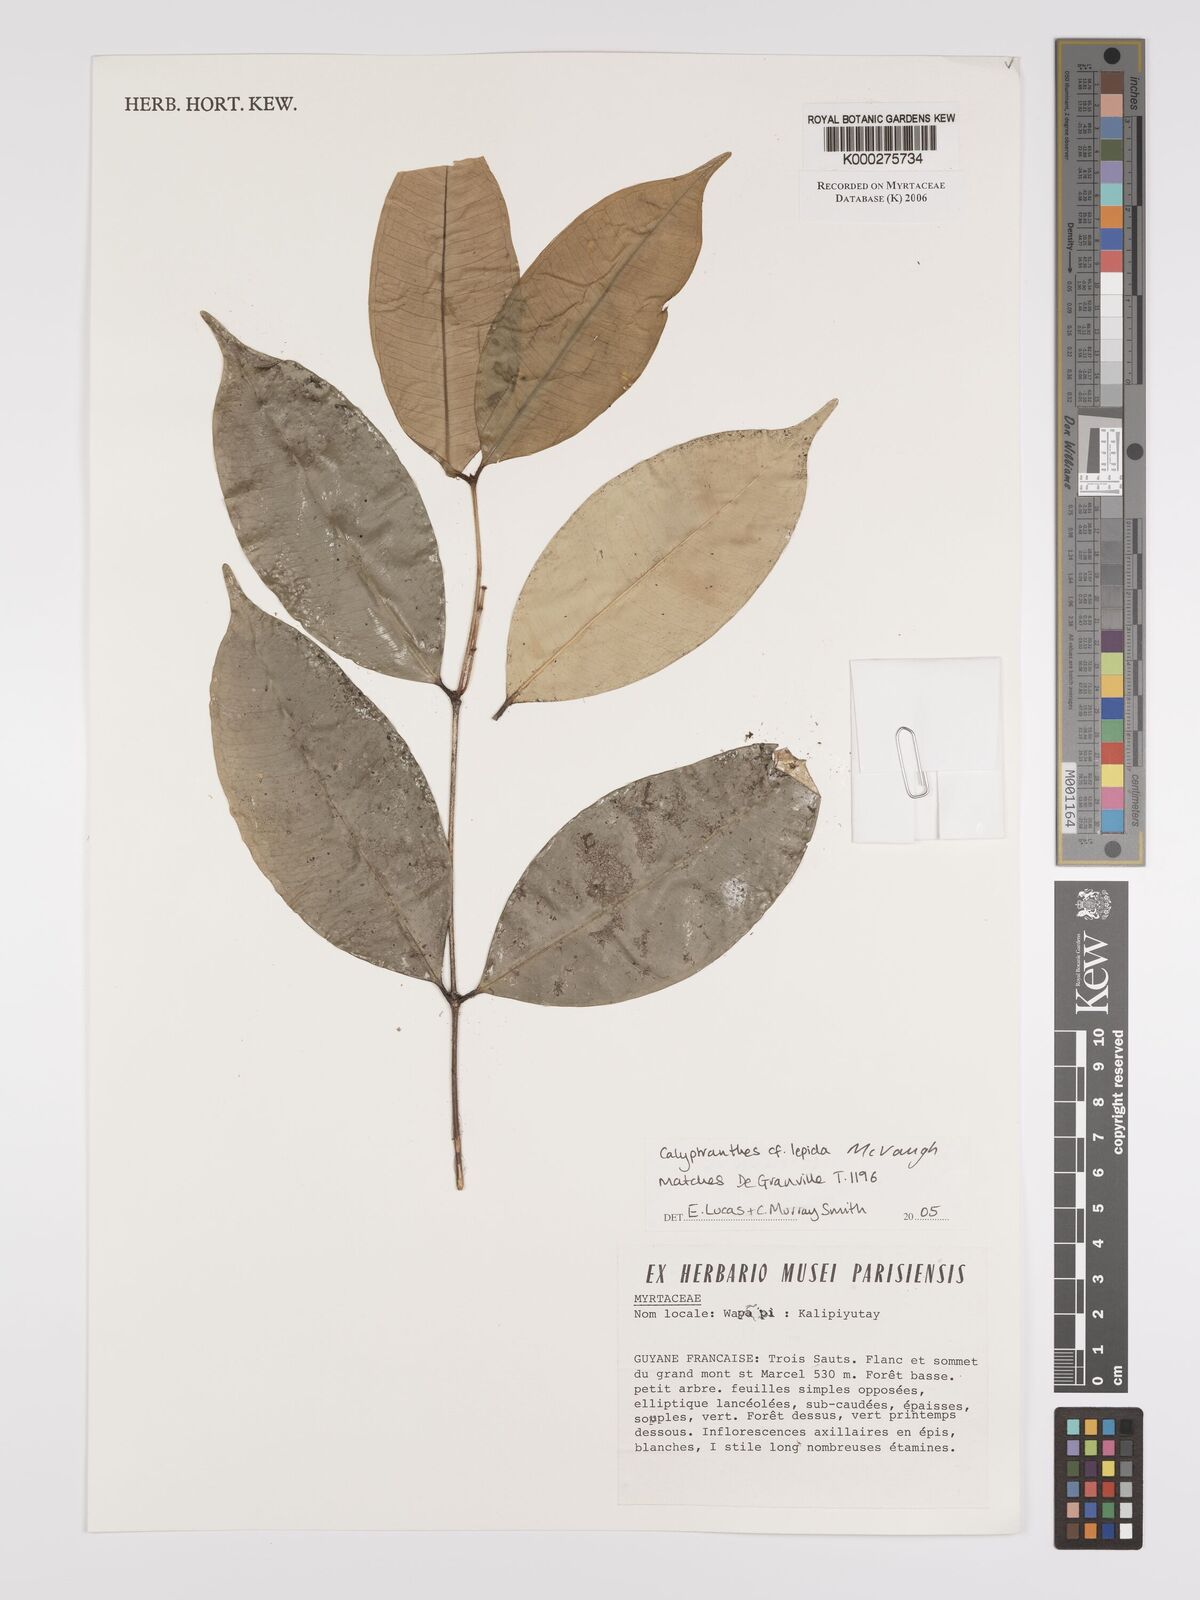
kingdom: Plantae
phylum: Tracheophyta
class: Magnoliopsida
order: Myrtales
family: Myrtaceae
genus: Myrcia
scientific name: Myrcia lepida
